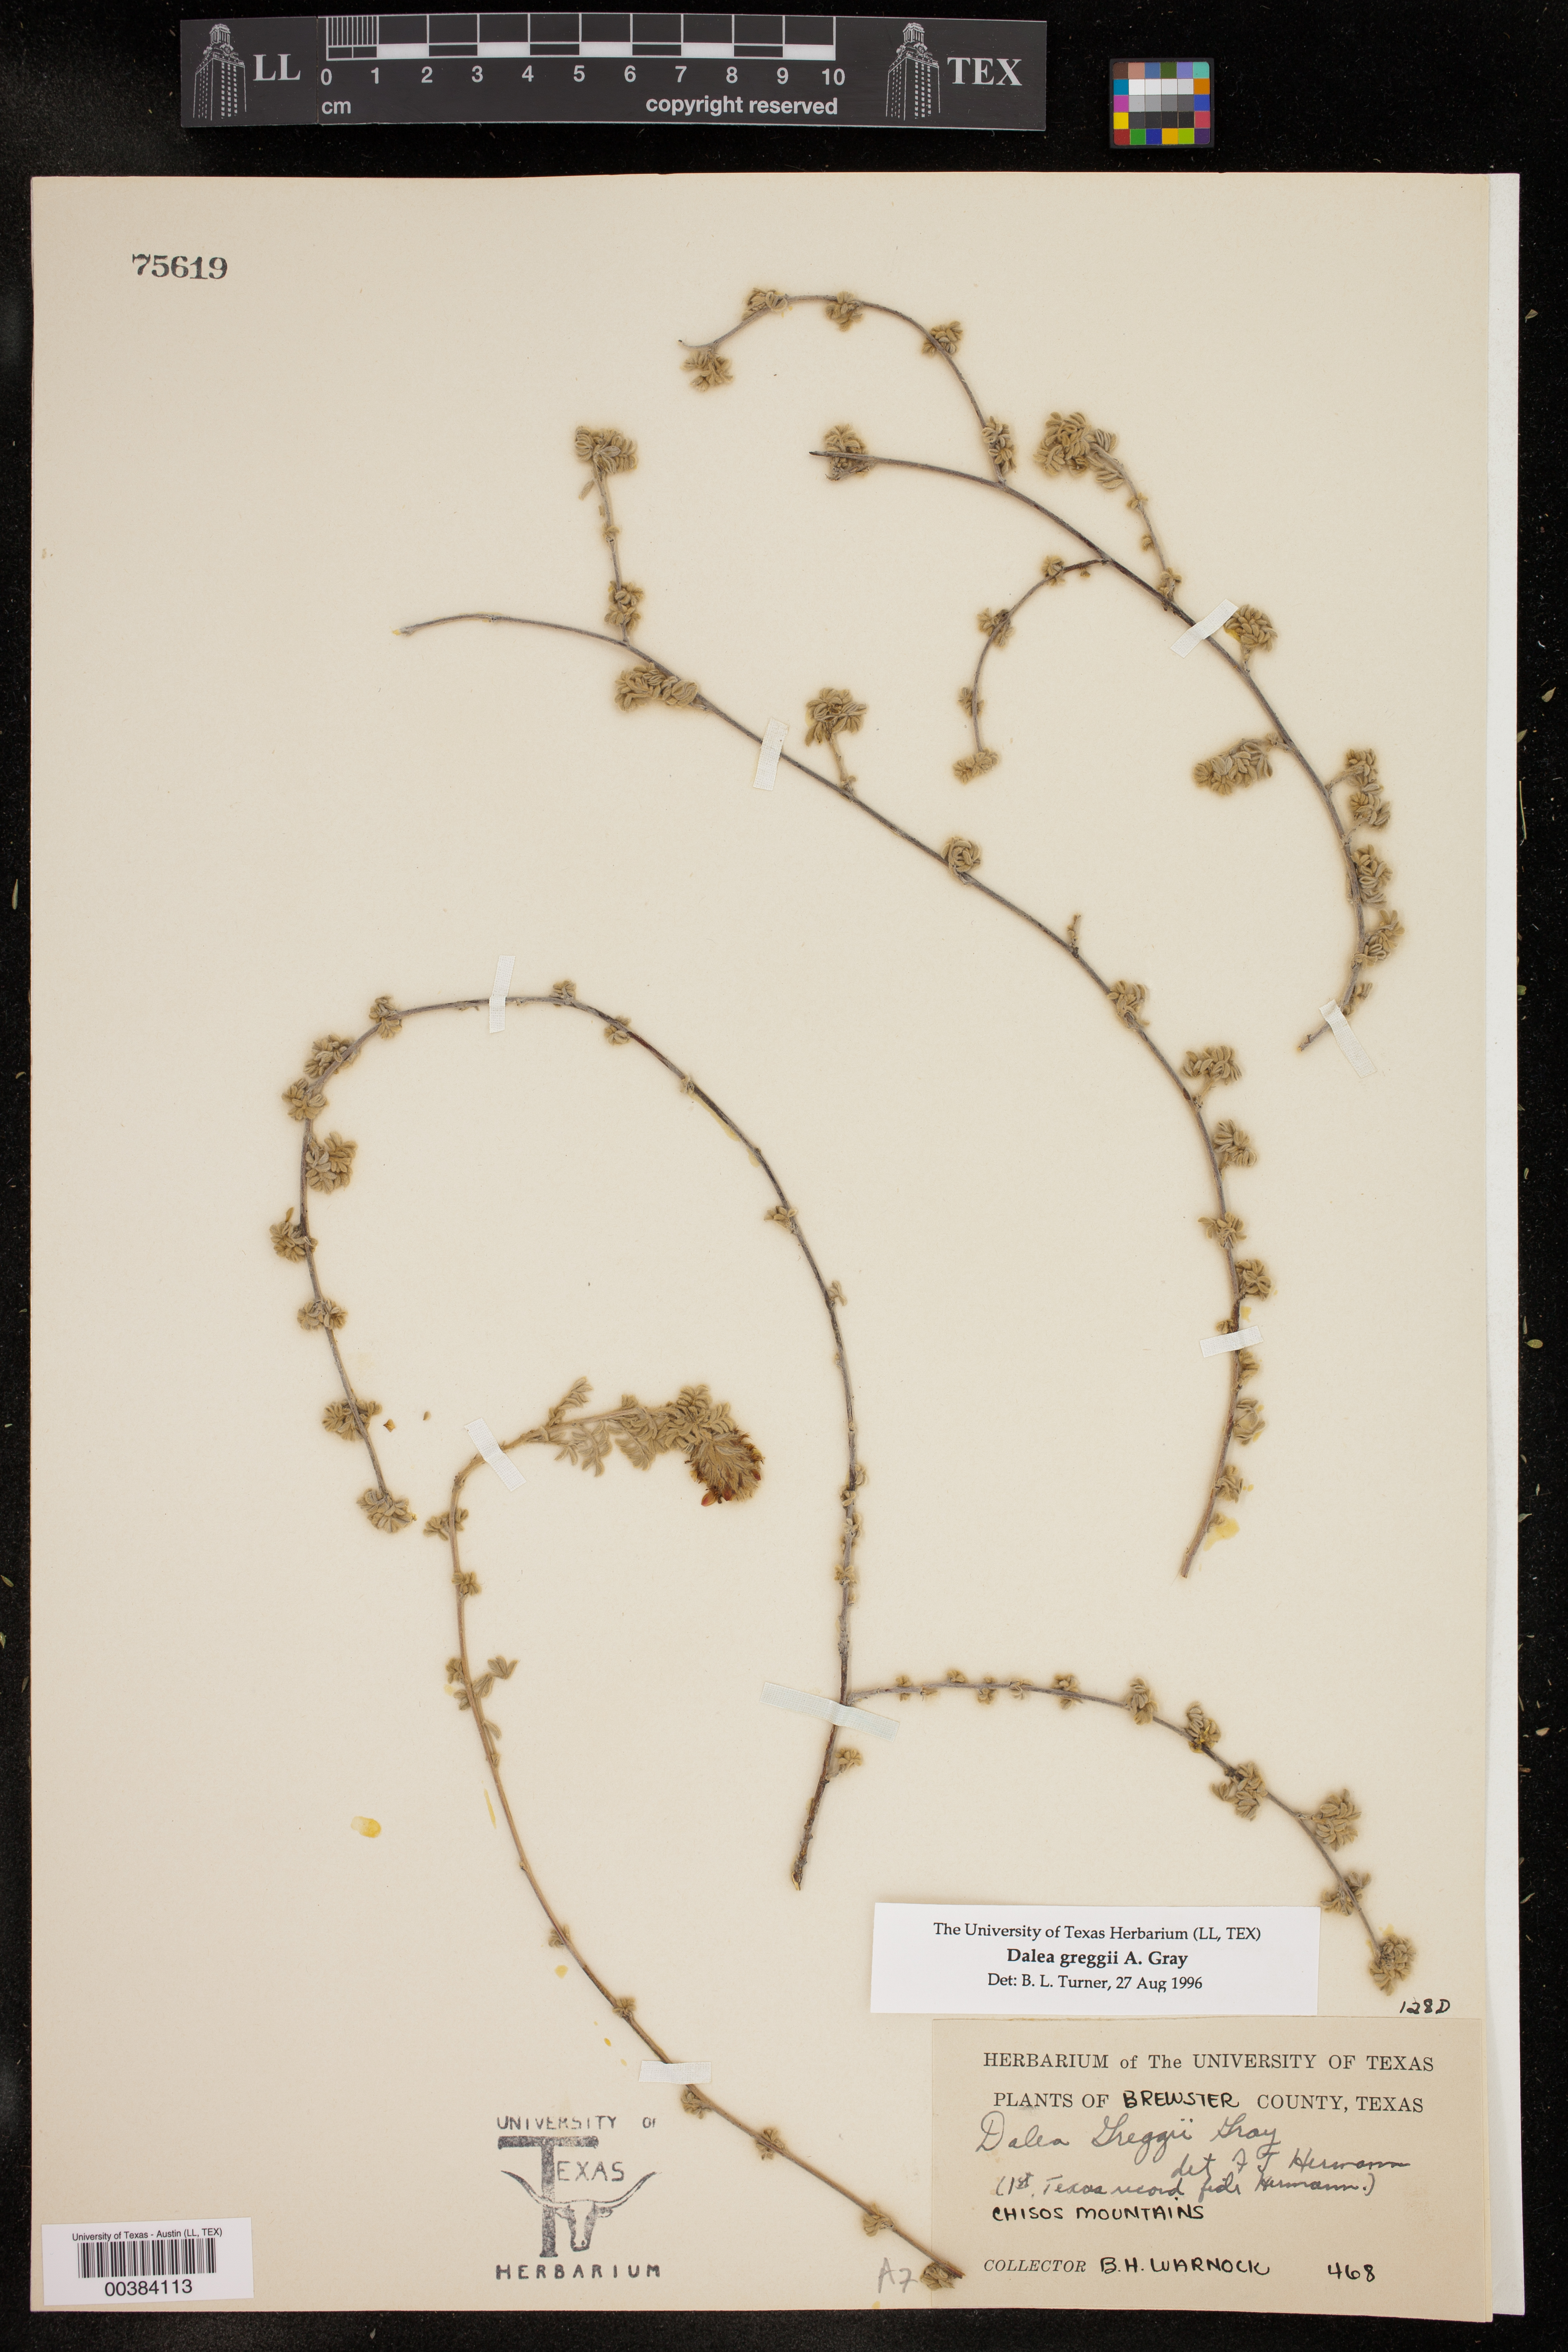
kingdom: Plantae
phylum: Tracheophyta
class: Magnoliopsida
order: Fabales
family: Fabaceae
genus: Dalea
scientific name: Dalea greggii
